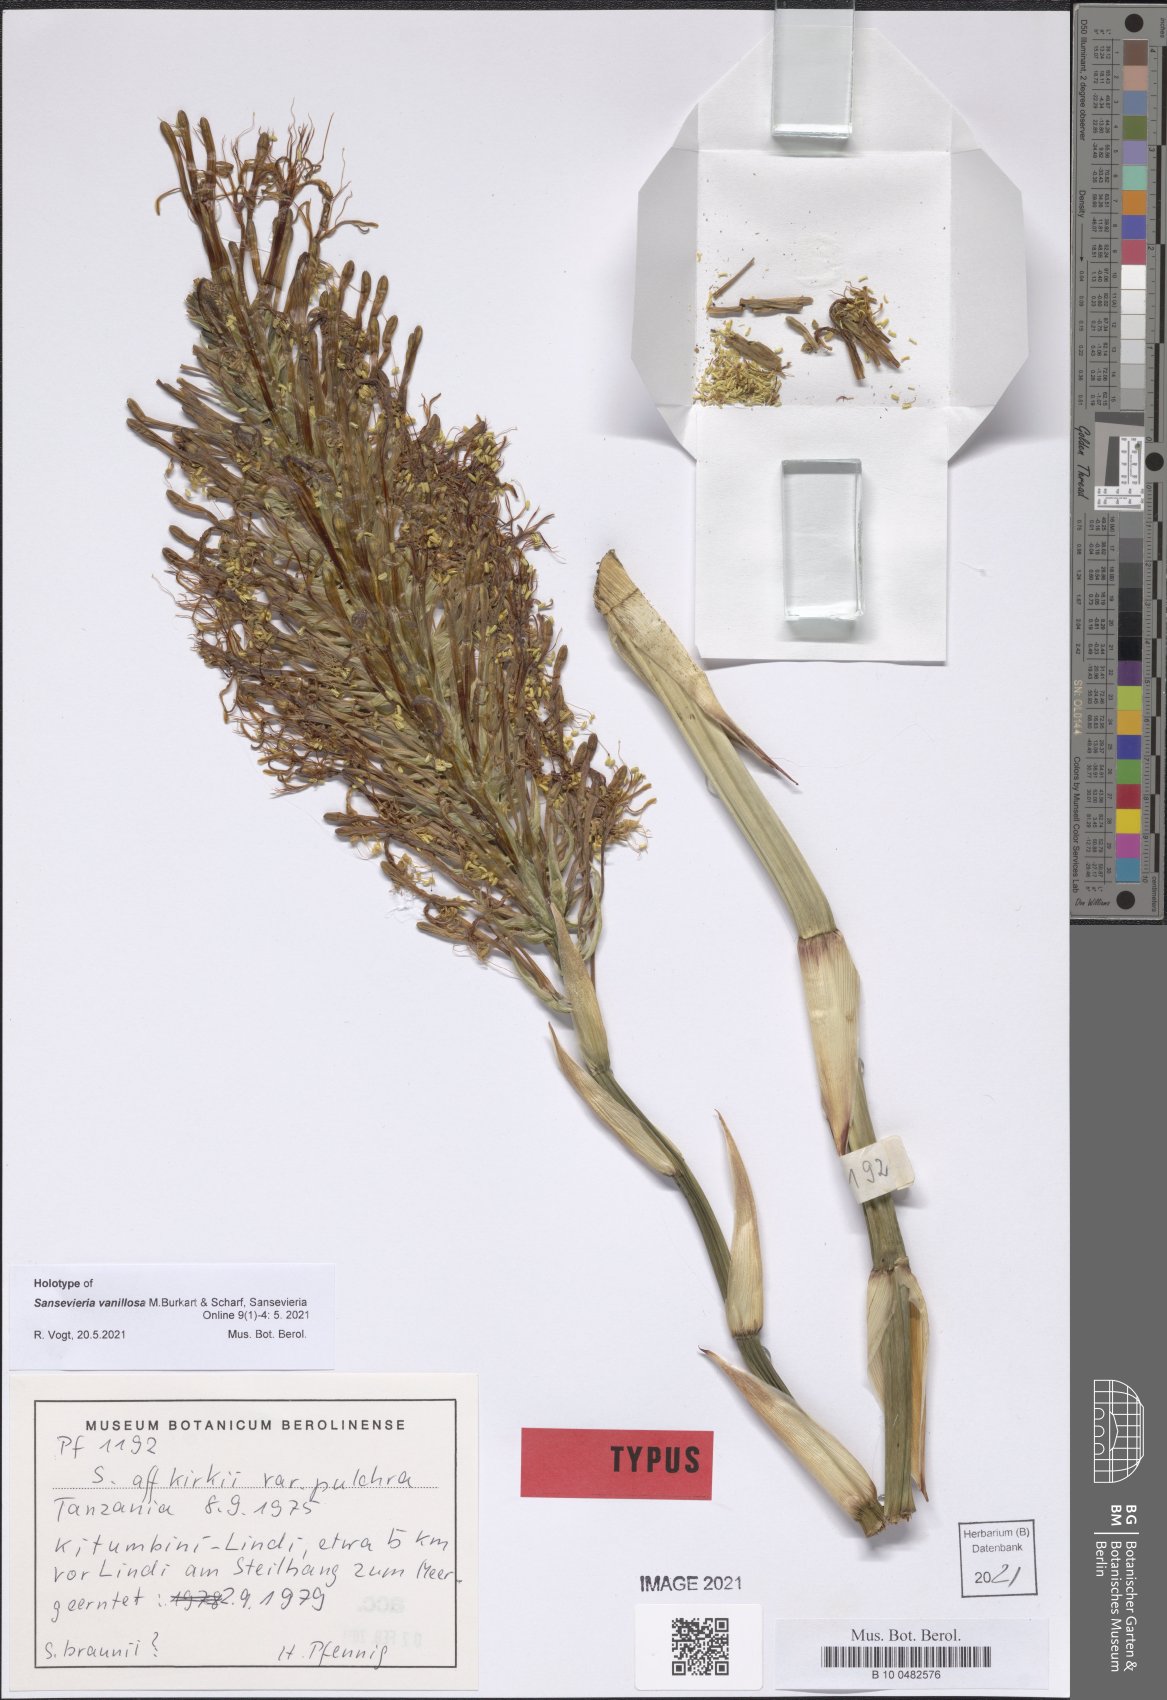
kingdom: Plantae
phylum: Tracheophyta
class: Liliopsida
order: Asparagales
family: Asparagaceae
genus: Dracaena
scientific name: Dracaena vanillosa
